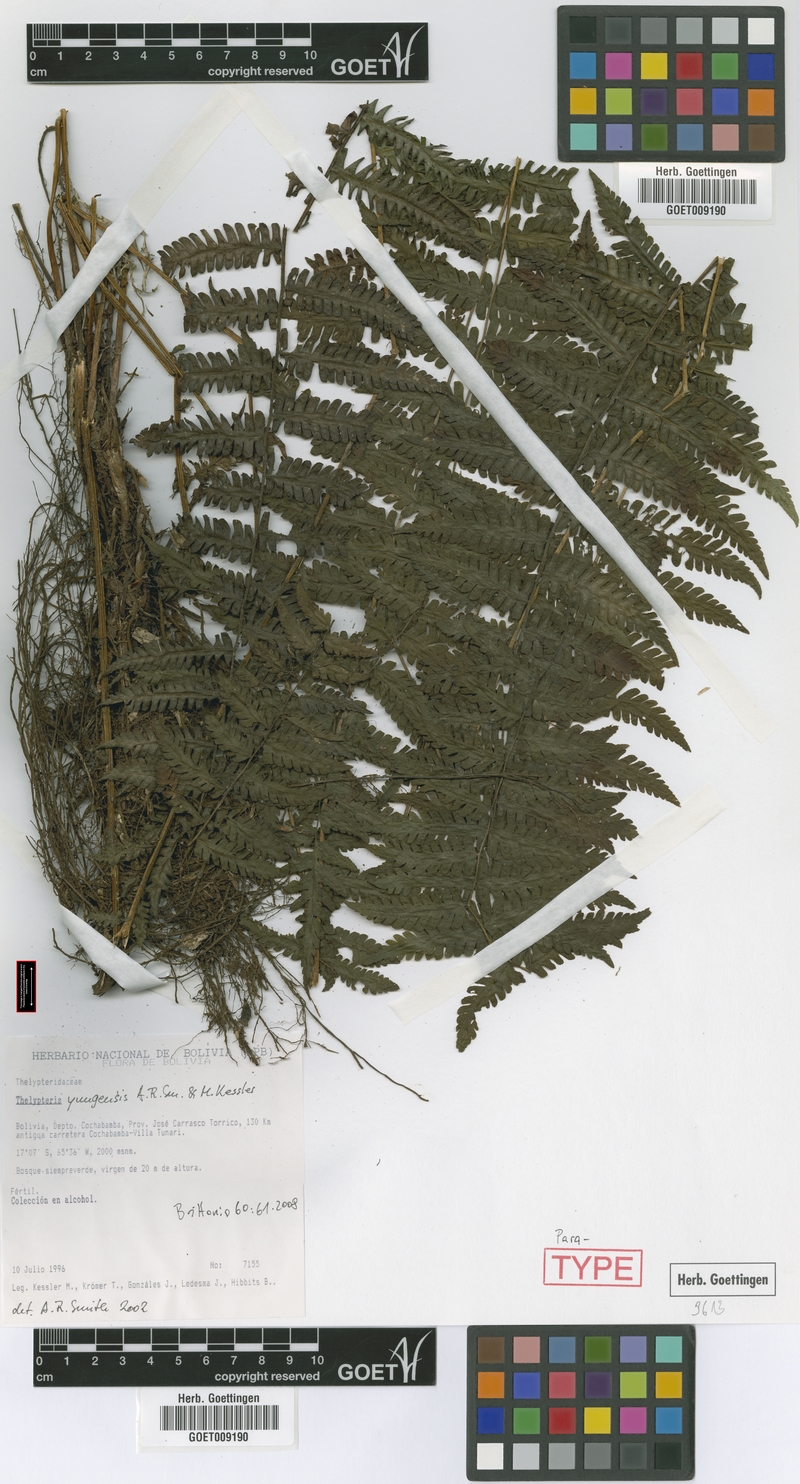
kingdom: Plantae
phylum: Tracheophyta
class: Polypodiopsida
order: Polypodiales
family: Thelypteridaceae
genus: Amauropelta
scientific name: Amauropelta yungensis
